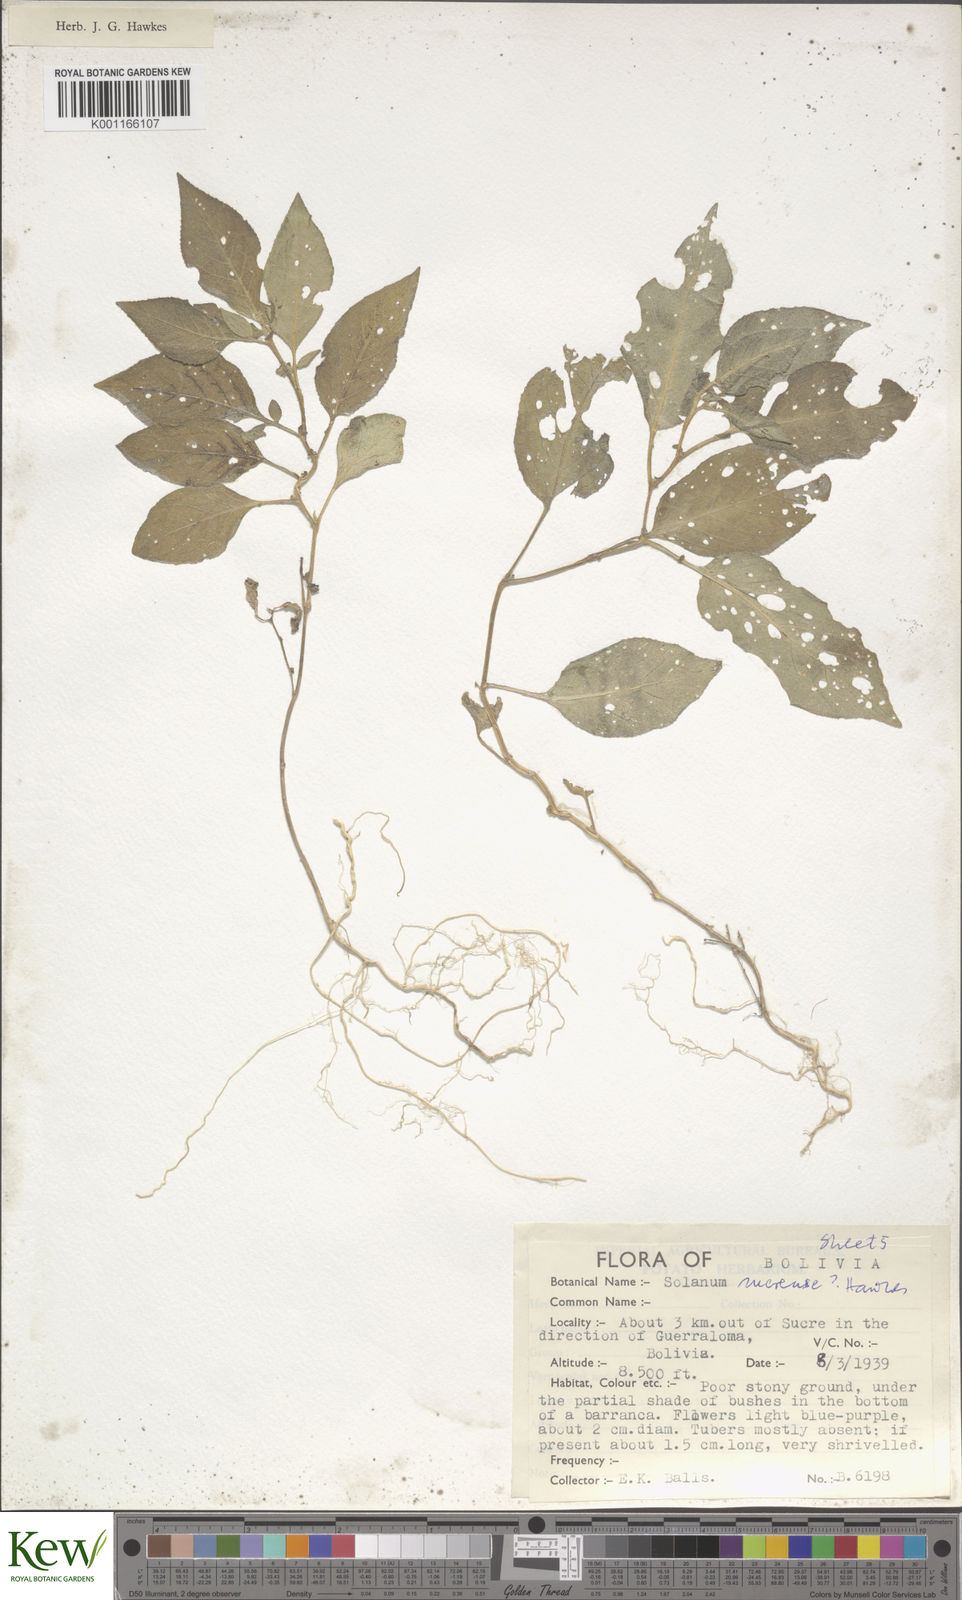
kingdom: Plantae
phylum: Tracheophyta
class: Magnoliopsida
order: Solanales
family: Solanaceae
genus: Solanum
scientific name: Solanum brevicaule
